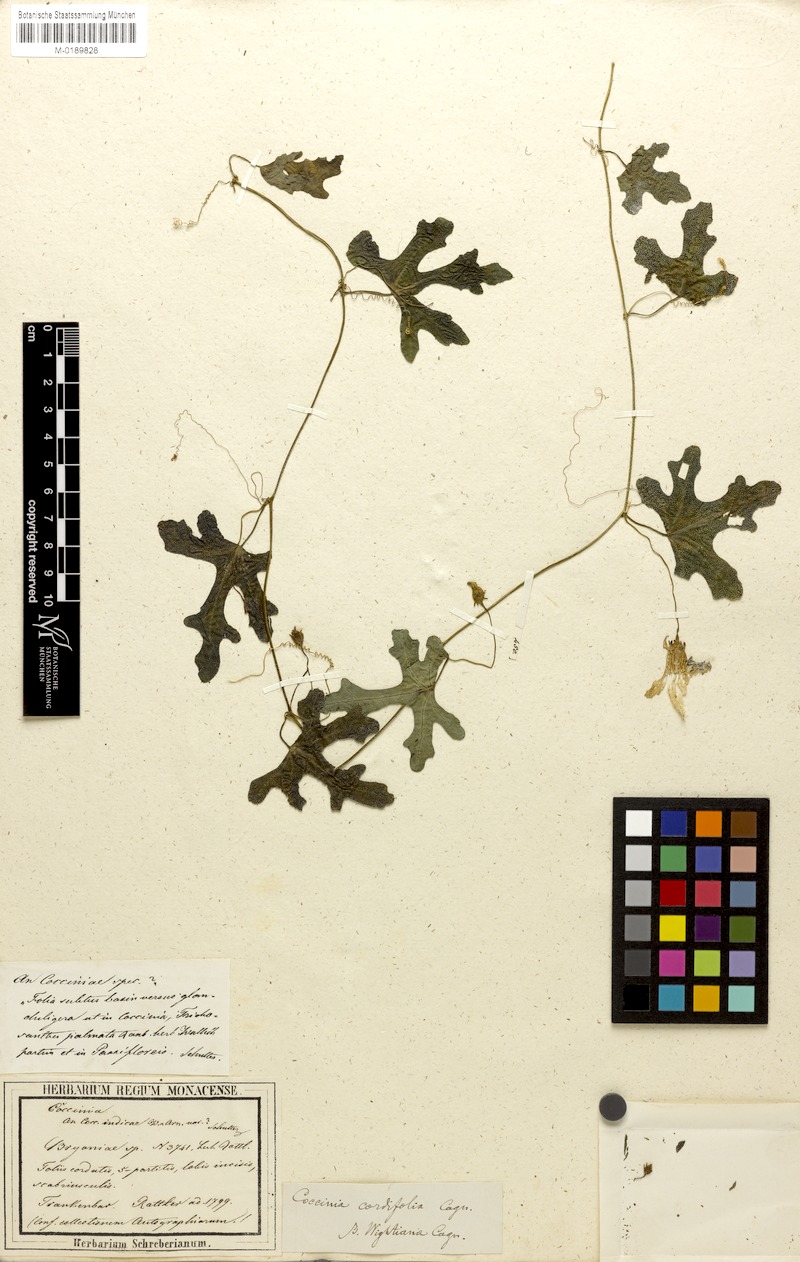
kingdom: Plantae
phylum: Tracheophyta
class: Magnoliopsida
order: Cucurbitales
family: Cucurbitaceae
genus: Coccinia
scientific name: Coccinia grandis
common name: Ivy gourd
